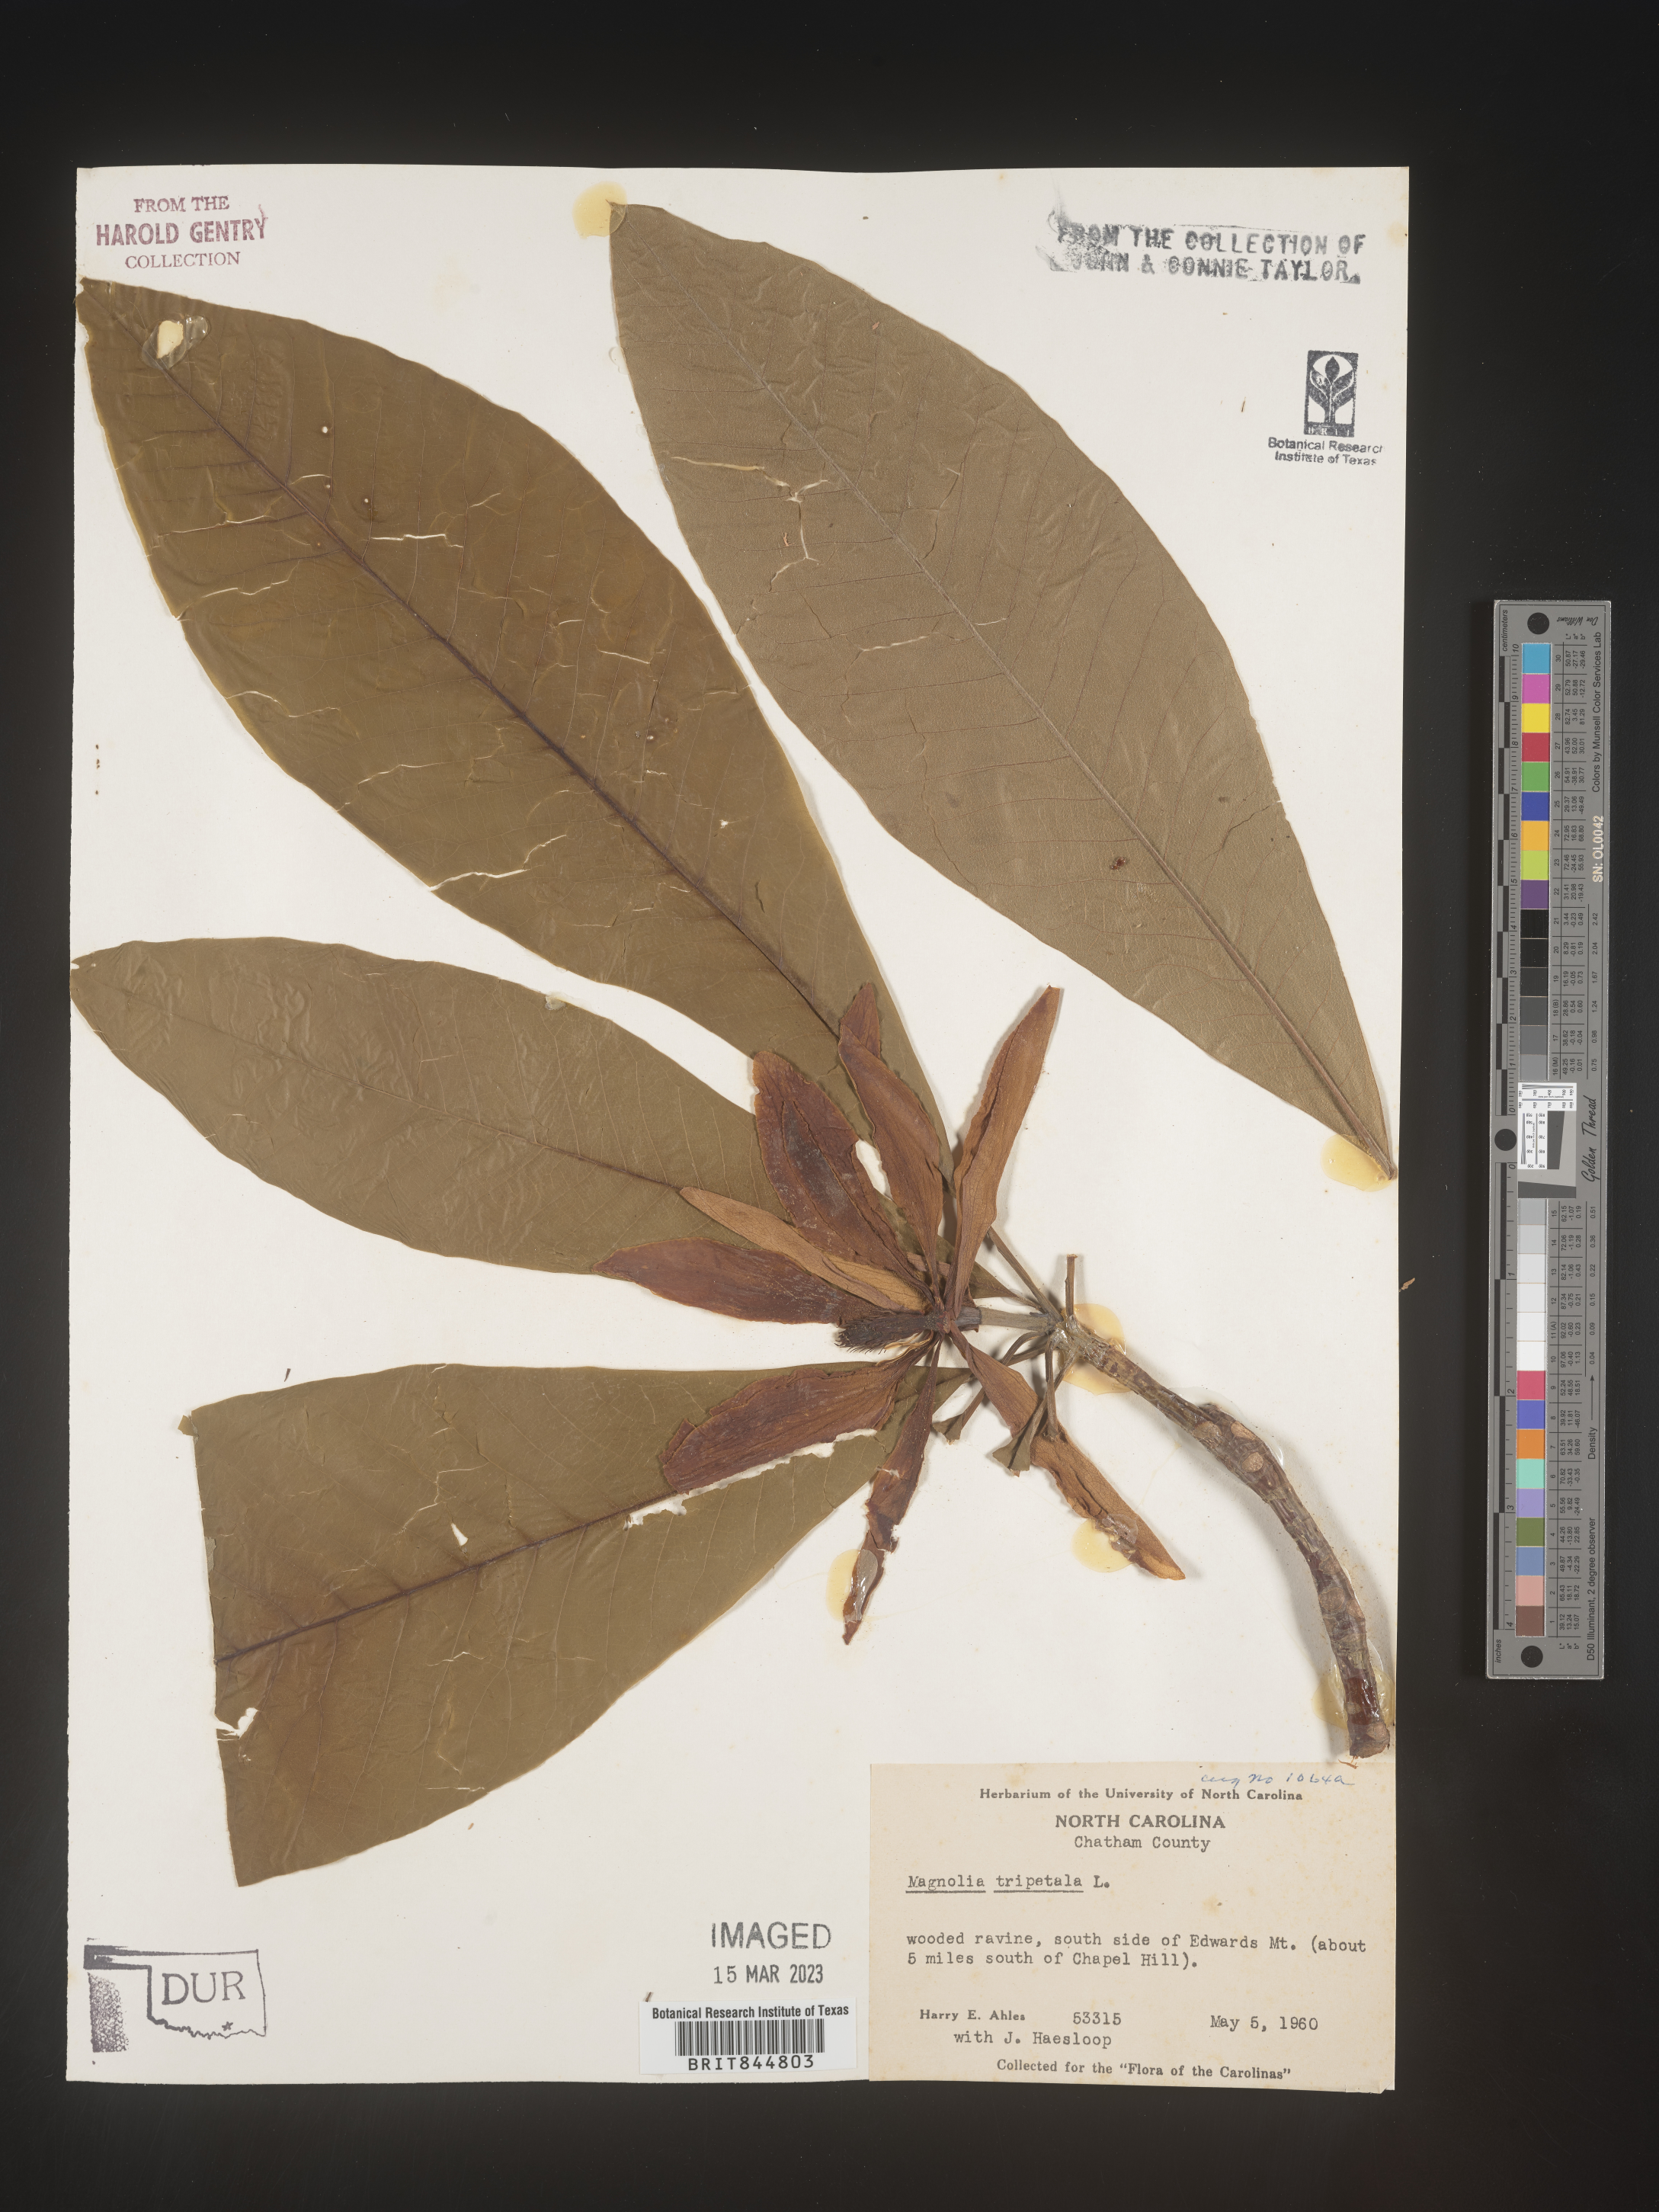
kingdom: Plantae
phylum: Tracheophyta
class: Magnoliopsida
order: Magnoliales
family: Magnoliaceae
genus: Magnolia
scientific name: Magnolia tripetala
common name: Umbrella magnolia
